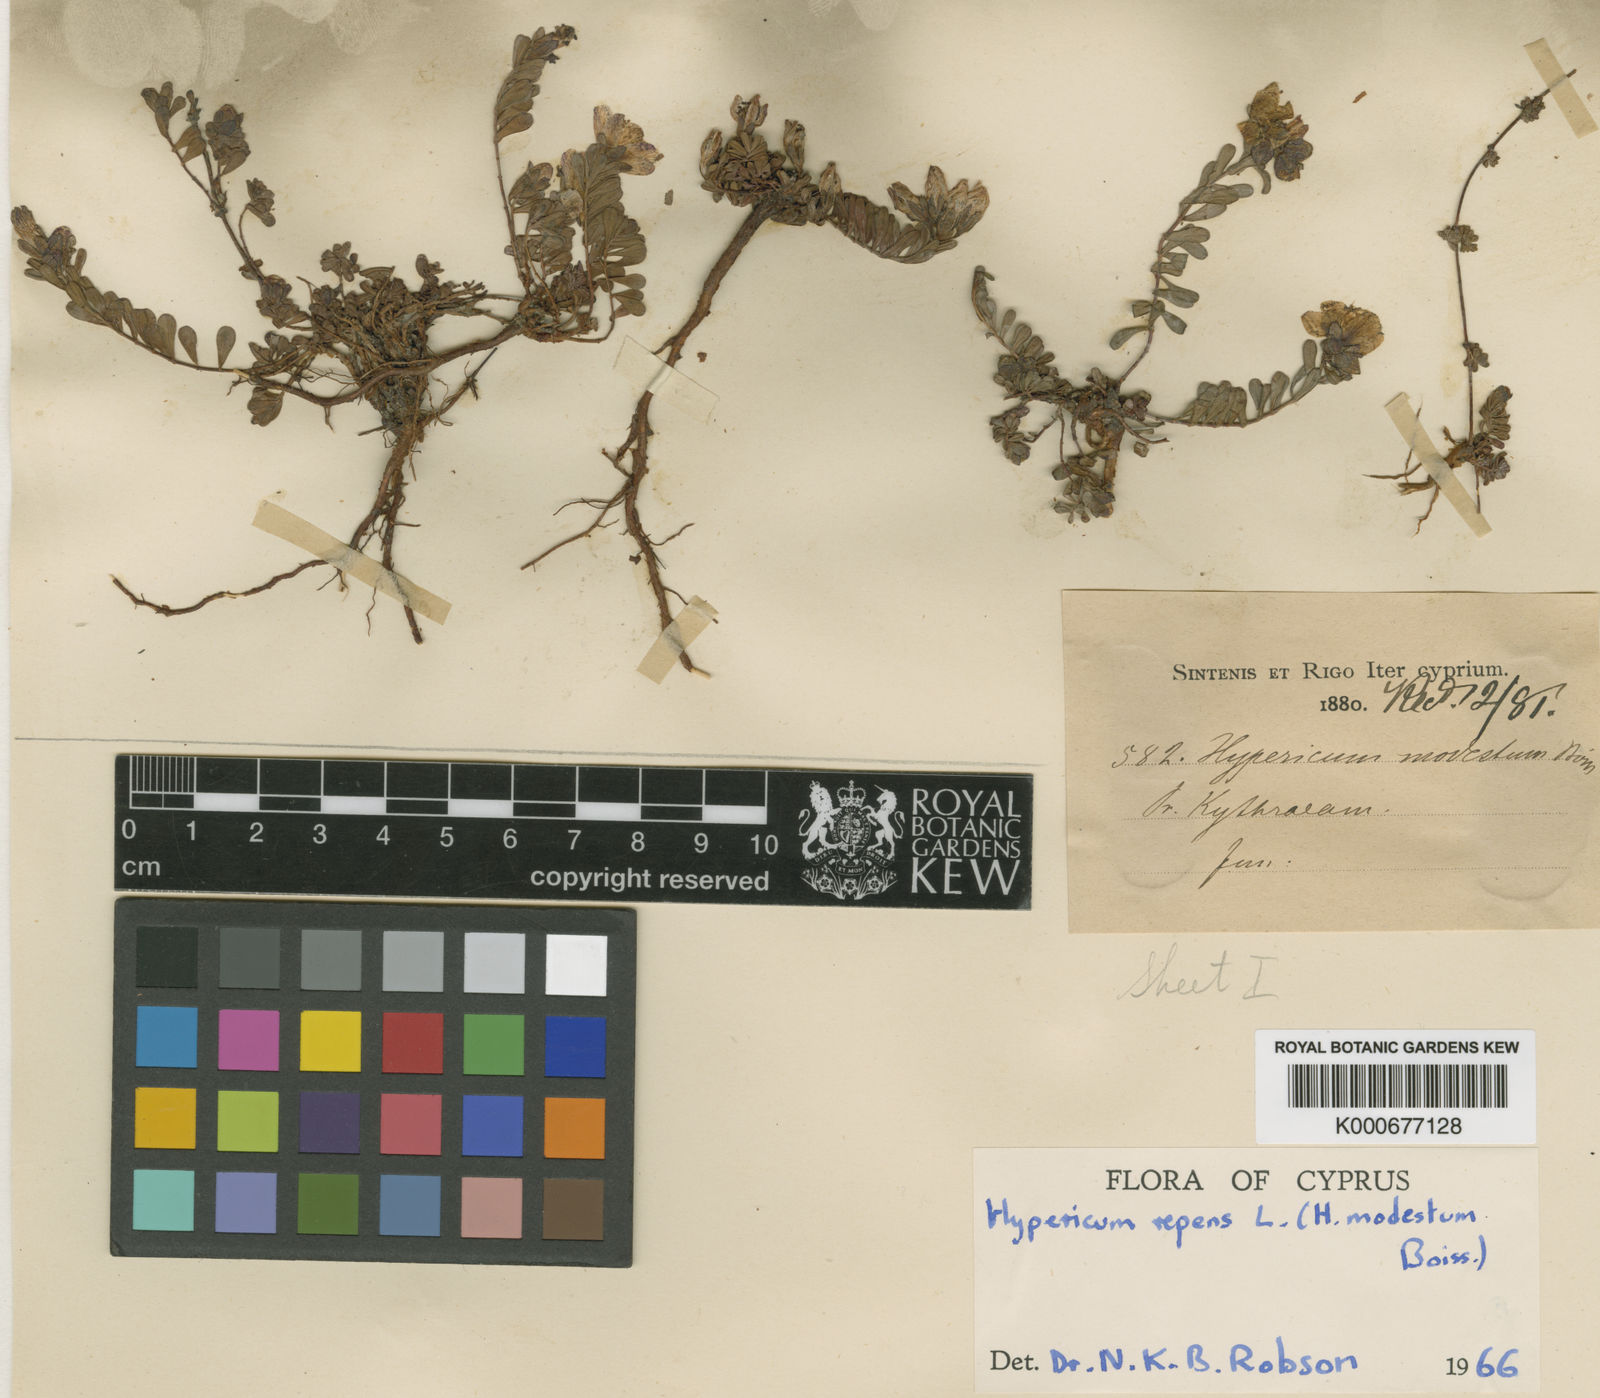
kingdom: Plantae
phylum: Tracheophyta
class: Magnoliopsida
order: Malpighiales
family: Hypericaceae
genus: Hypericum
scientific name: Hypericum repens
